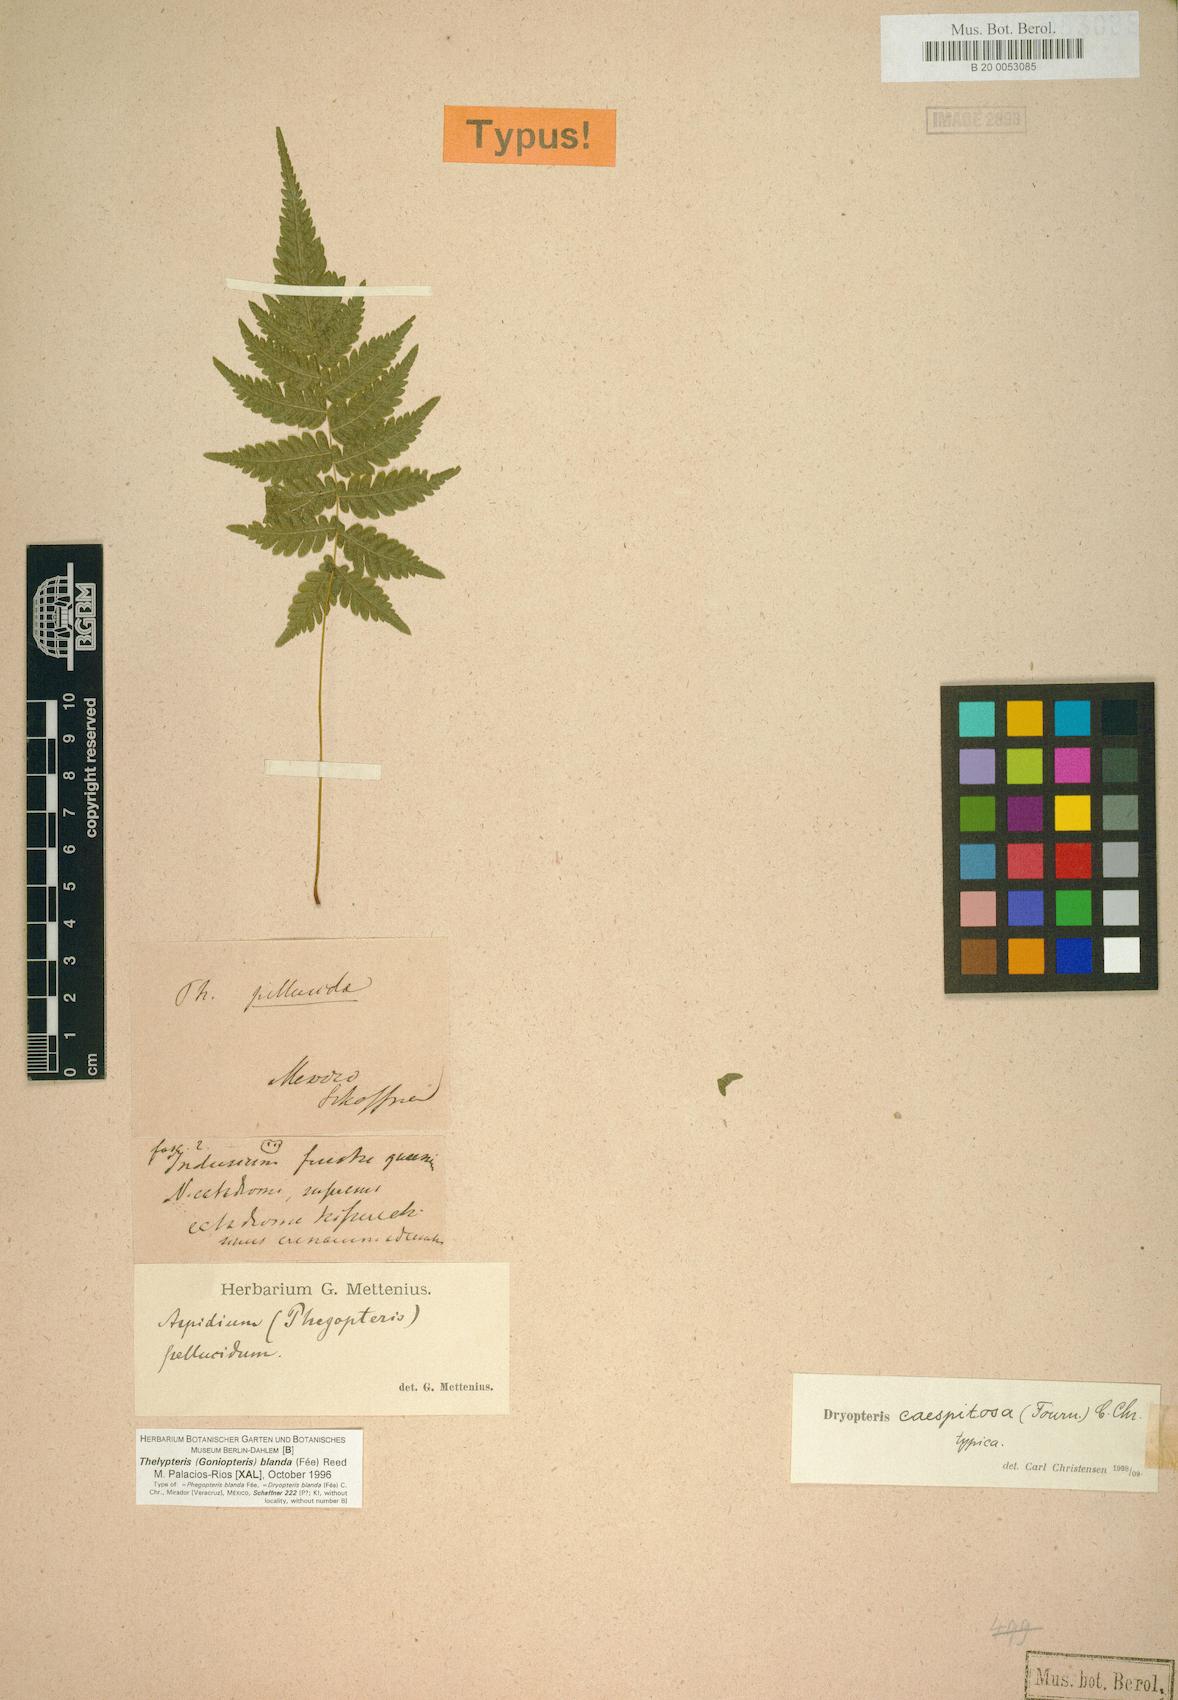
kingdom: Plantae
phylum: Tracheophyta
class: Polypodiopsida
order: Polypodiales
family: Thelypteridaceae
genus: Goniopteris
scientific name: Goniopteris blanda
